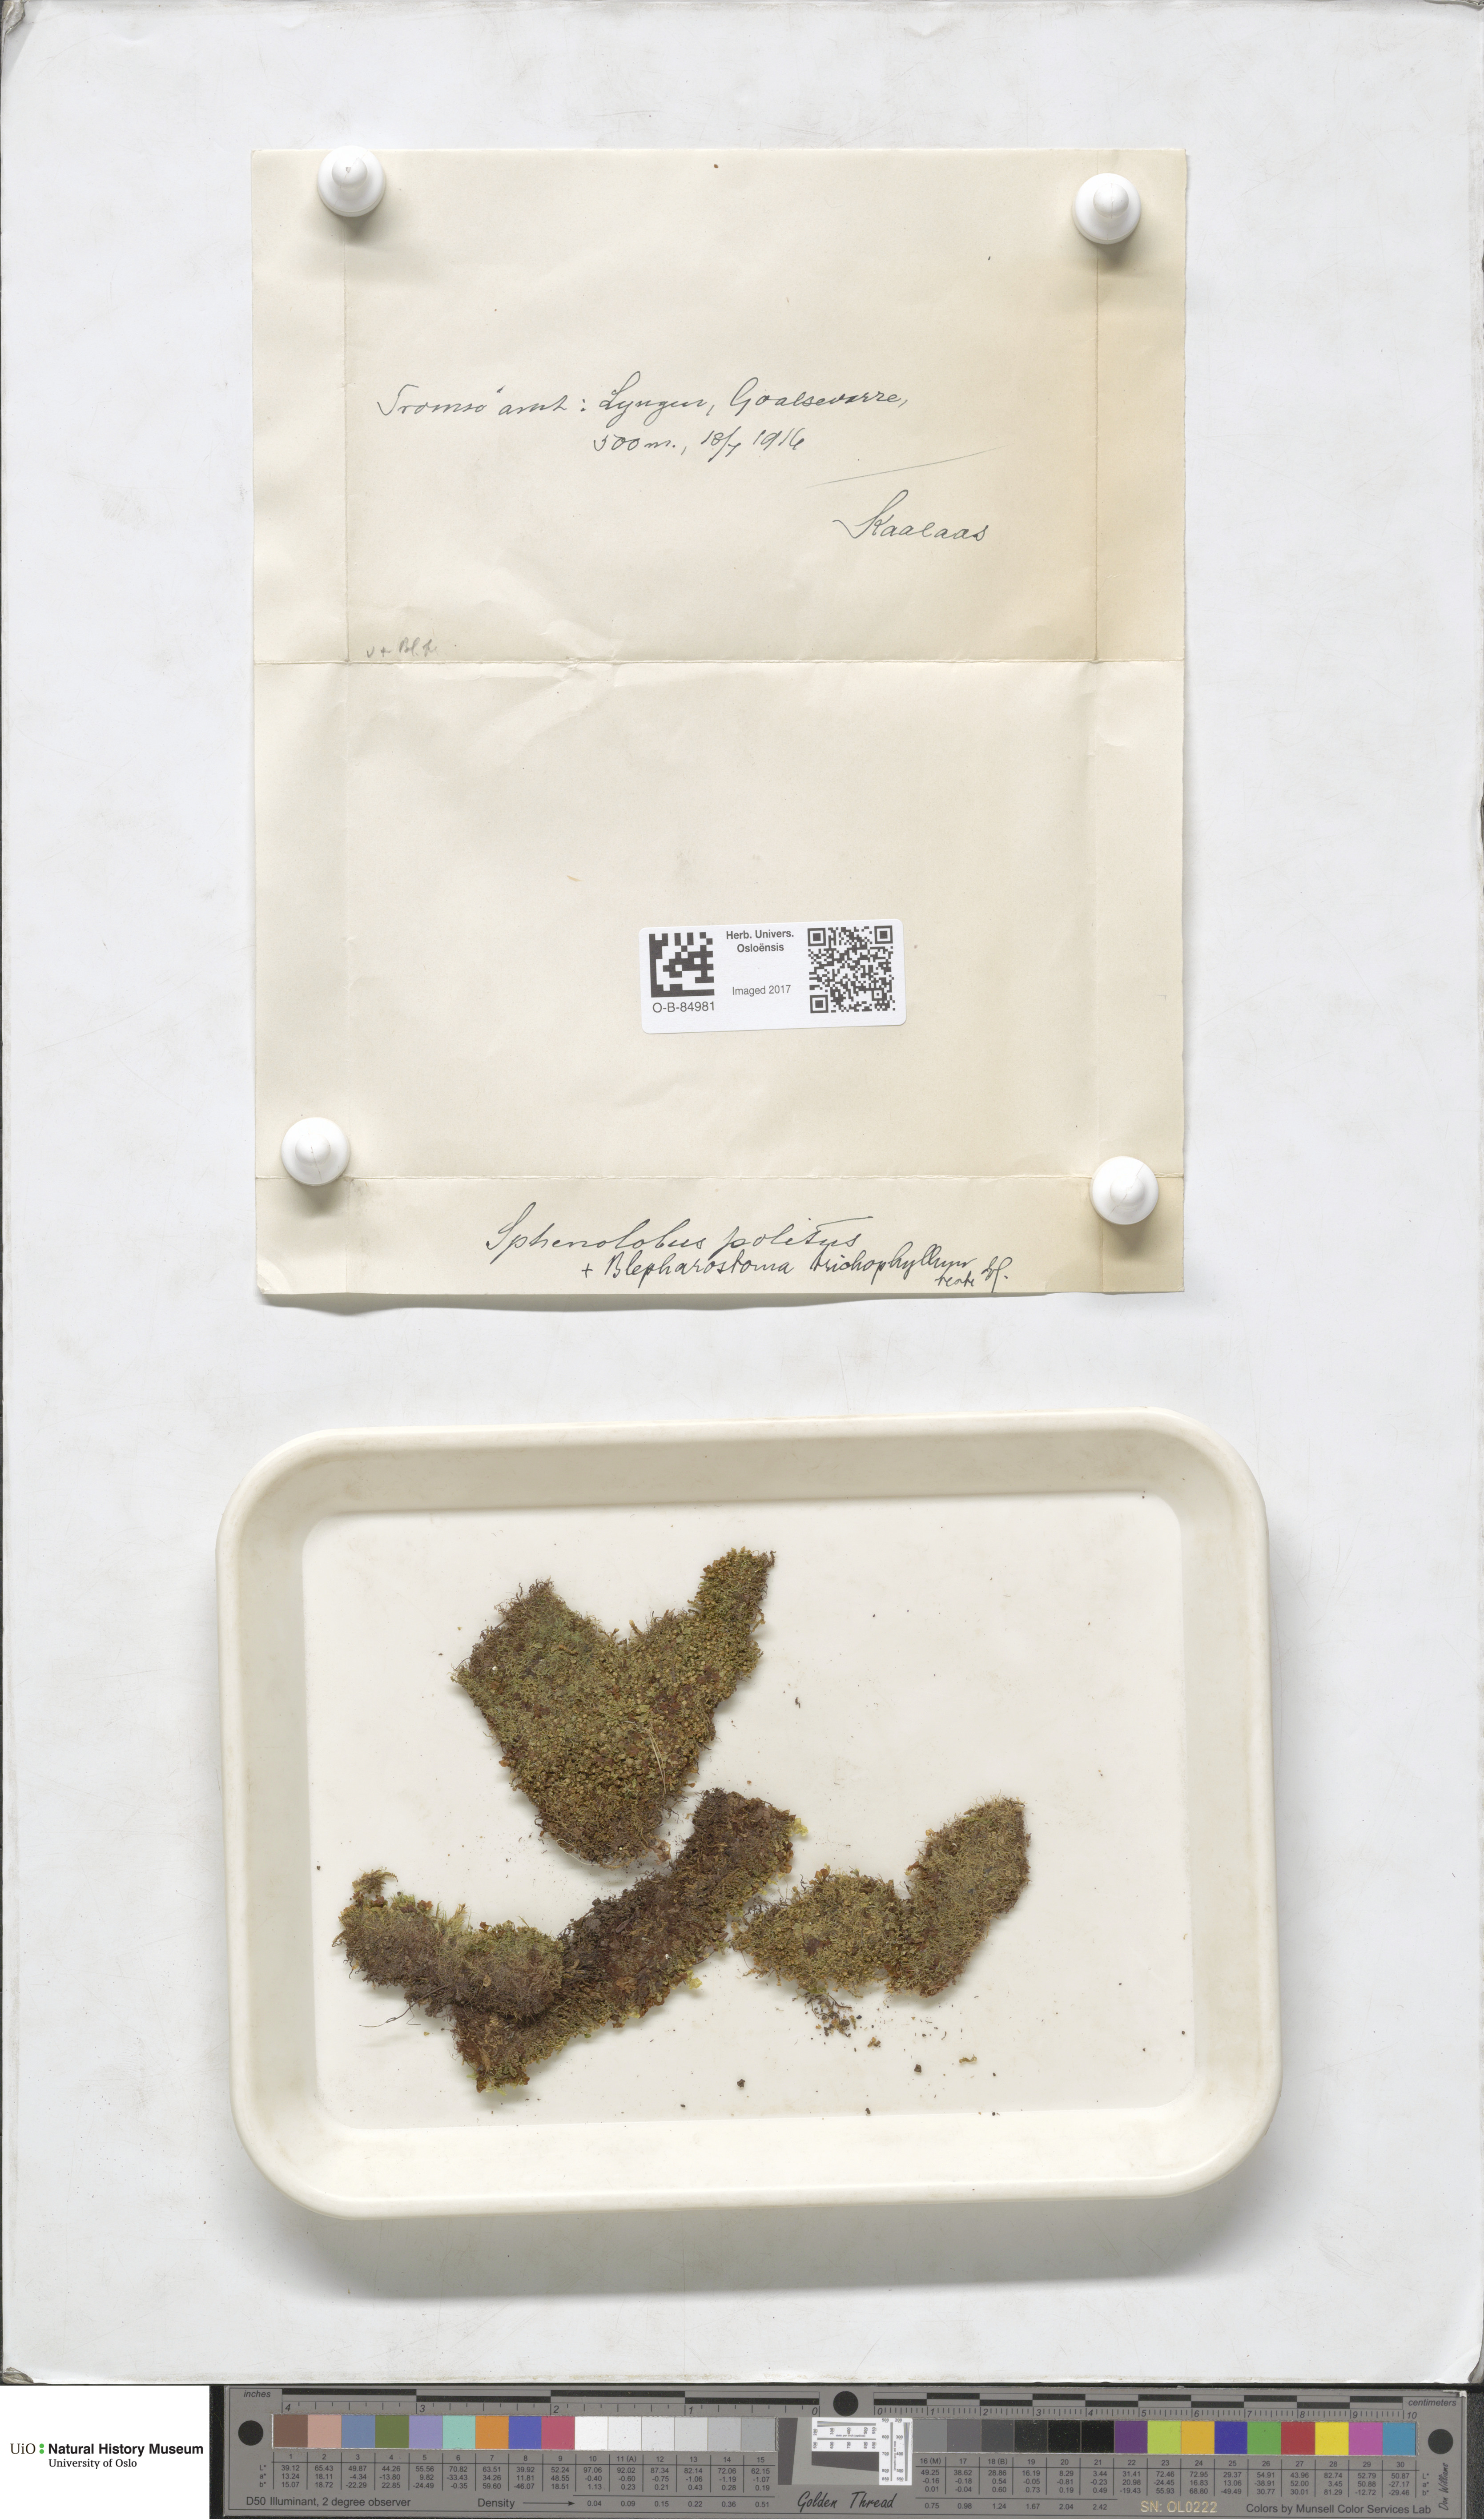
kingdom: Plantae
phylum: Marchantiophyta
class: Jungermanniopsida
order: Jungermanniales
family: Scapaniaceae
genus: Saccobasis
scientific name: Saccobasis polita
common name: Flush notchwort
